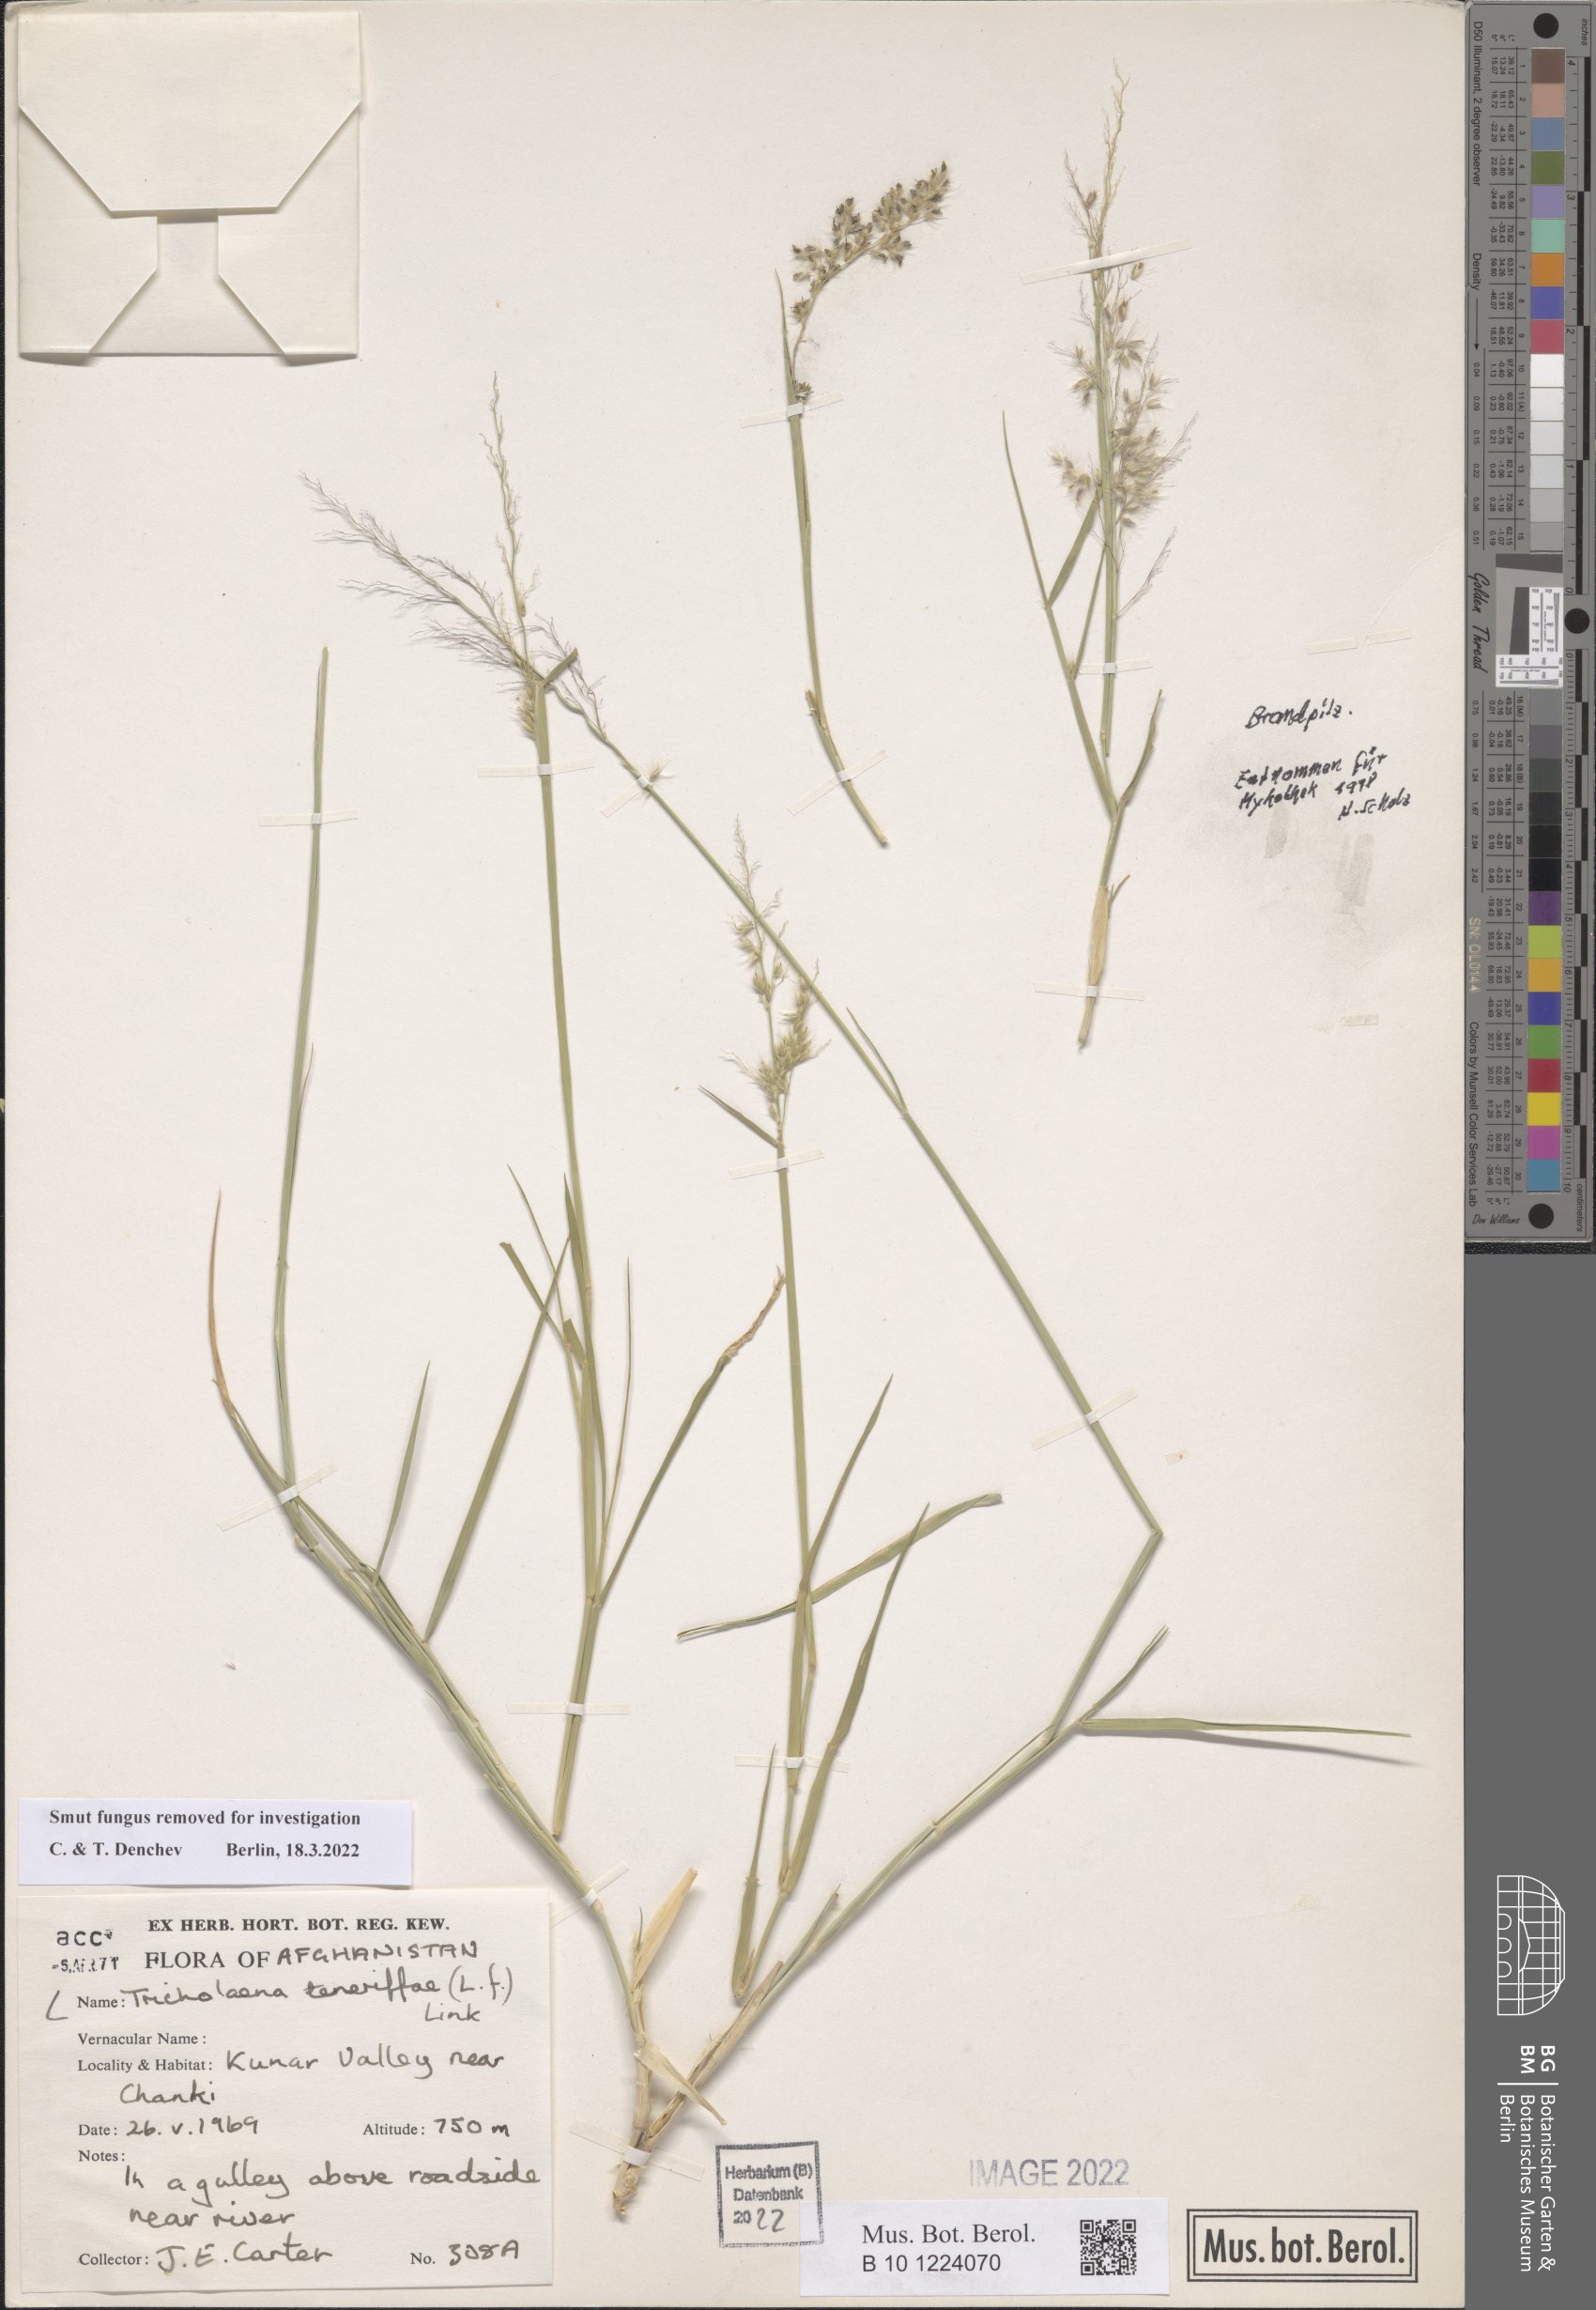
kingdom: Plantae
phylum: Tracheophyta
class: Liliopsida
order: Poales
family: Poaceae
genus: Tricholaena
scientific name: Tricholaena teneriffae
